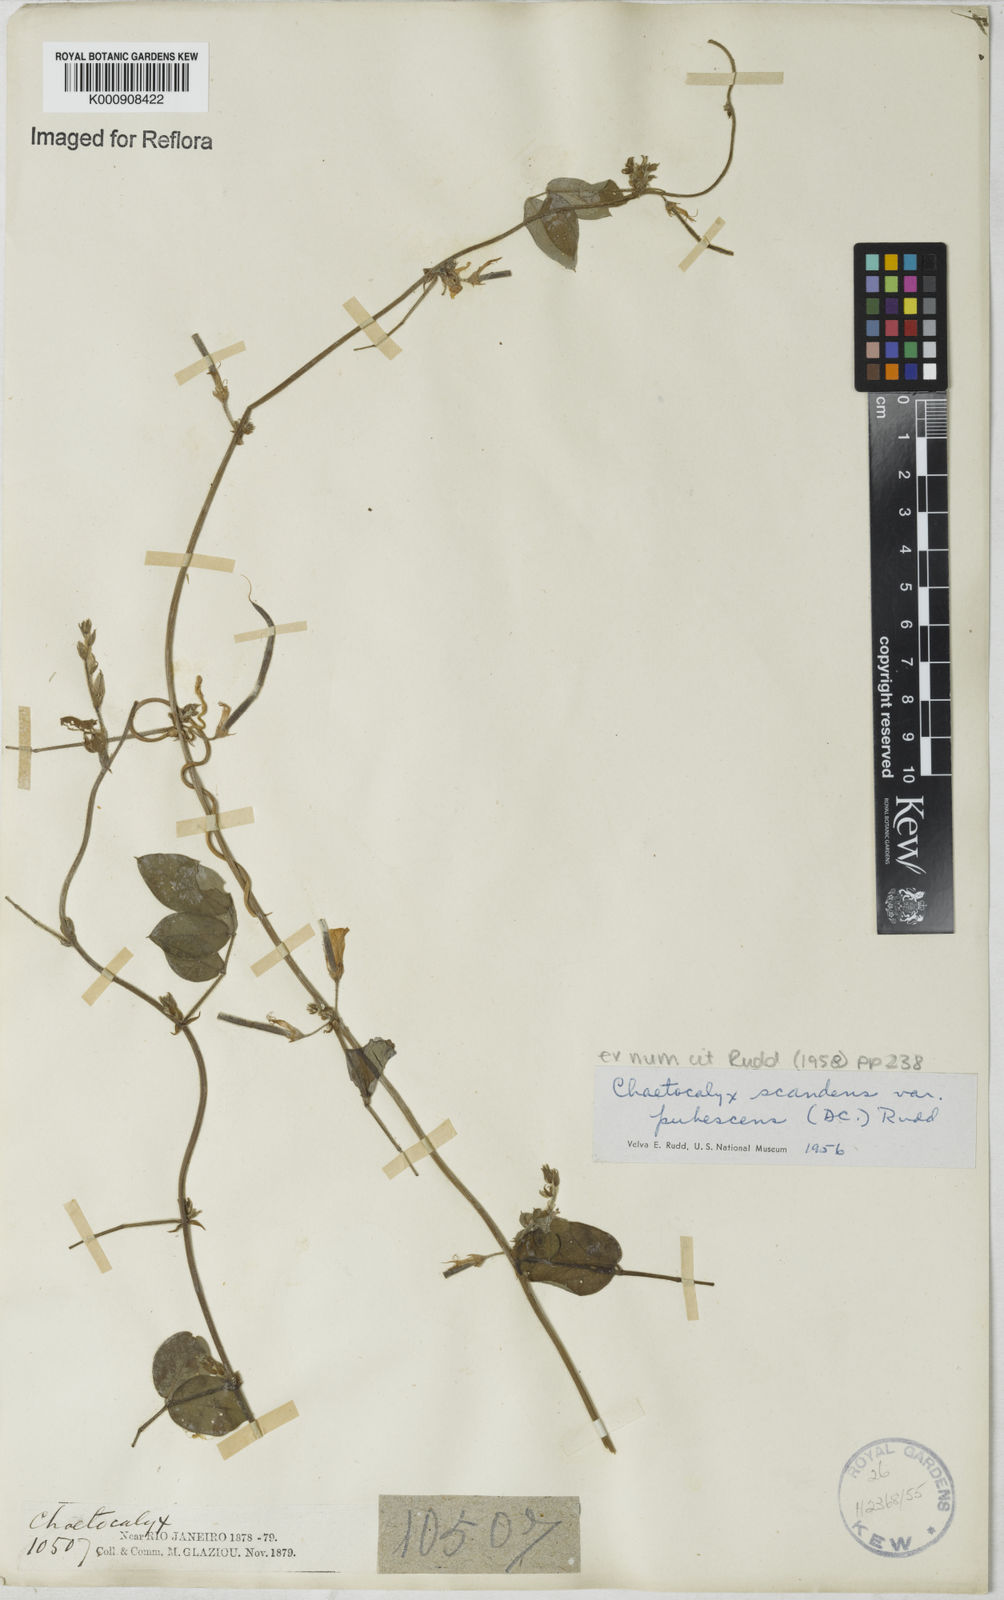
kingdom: Plantae
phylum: Tracheophyta
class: Magnoliopsida
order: Fabales
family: Fabaceae
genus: Nissolia
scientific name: Nissolia vincentina
